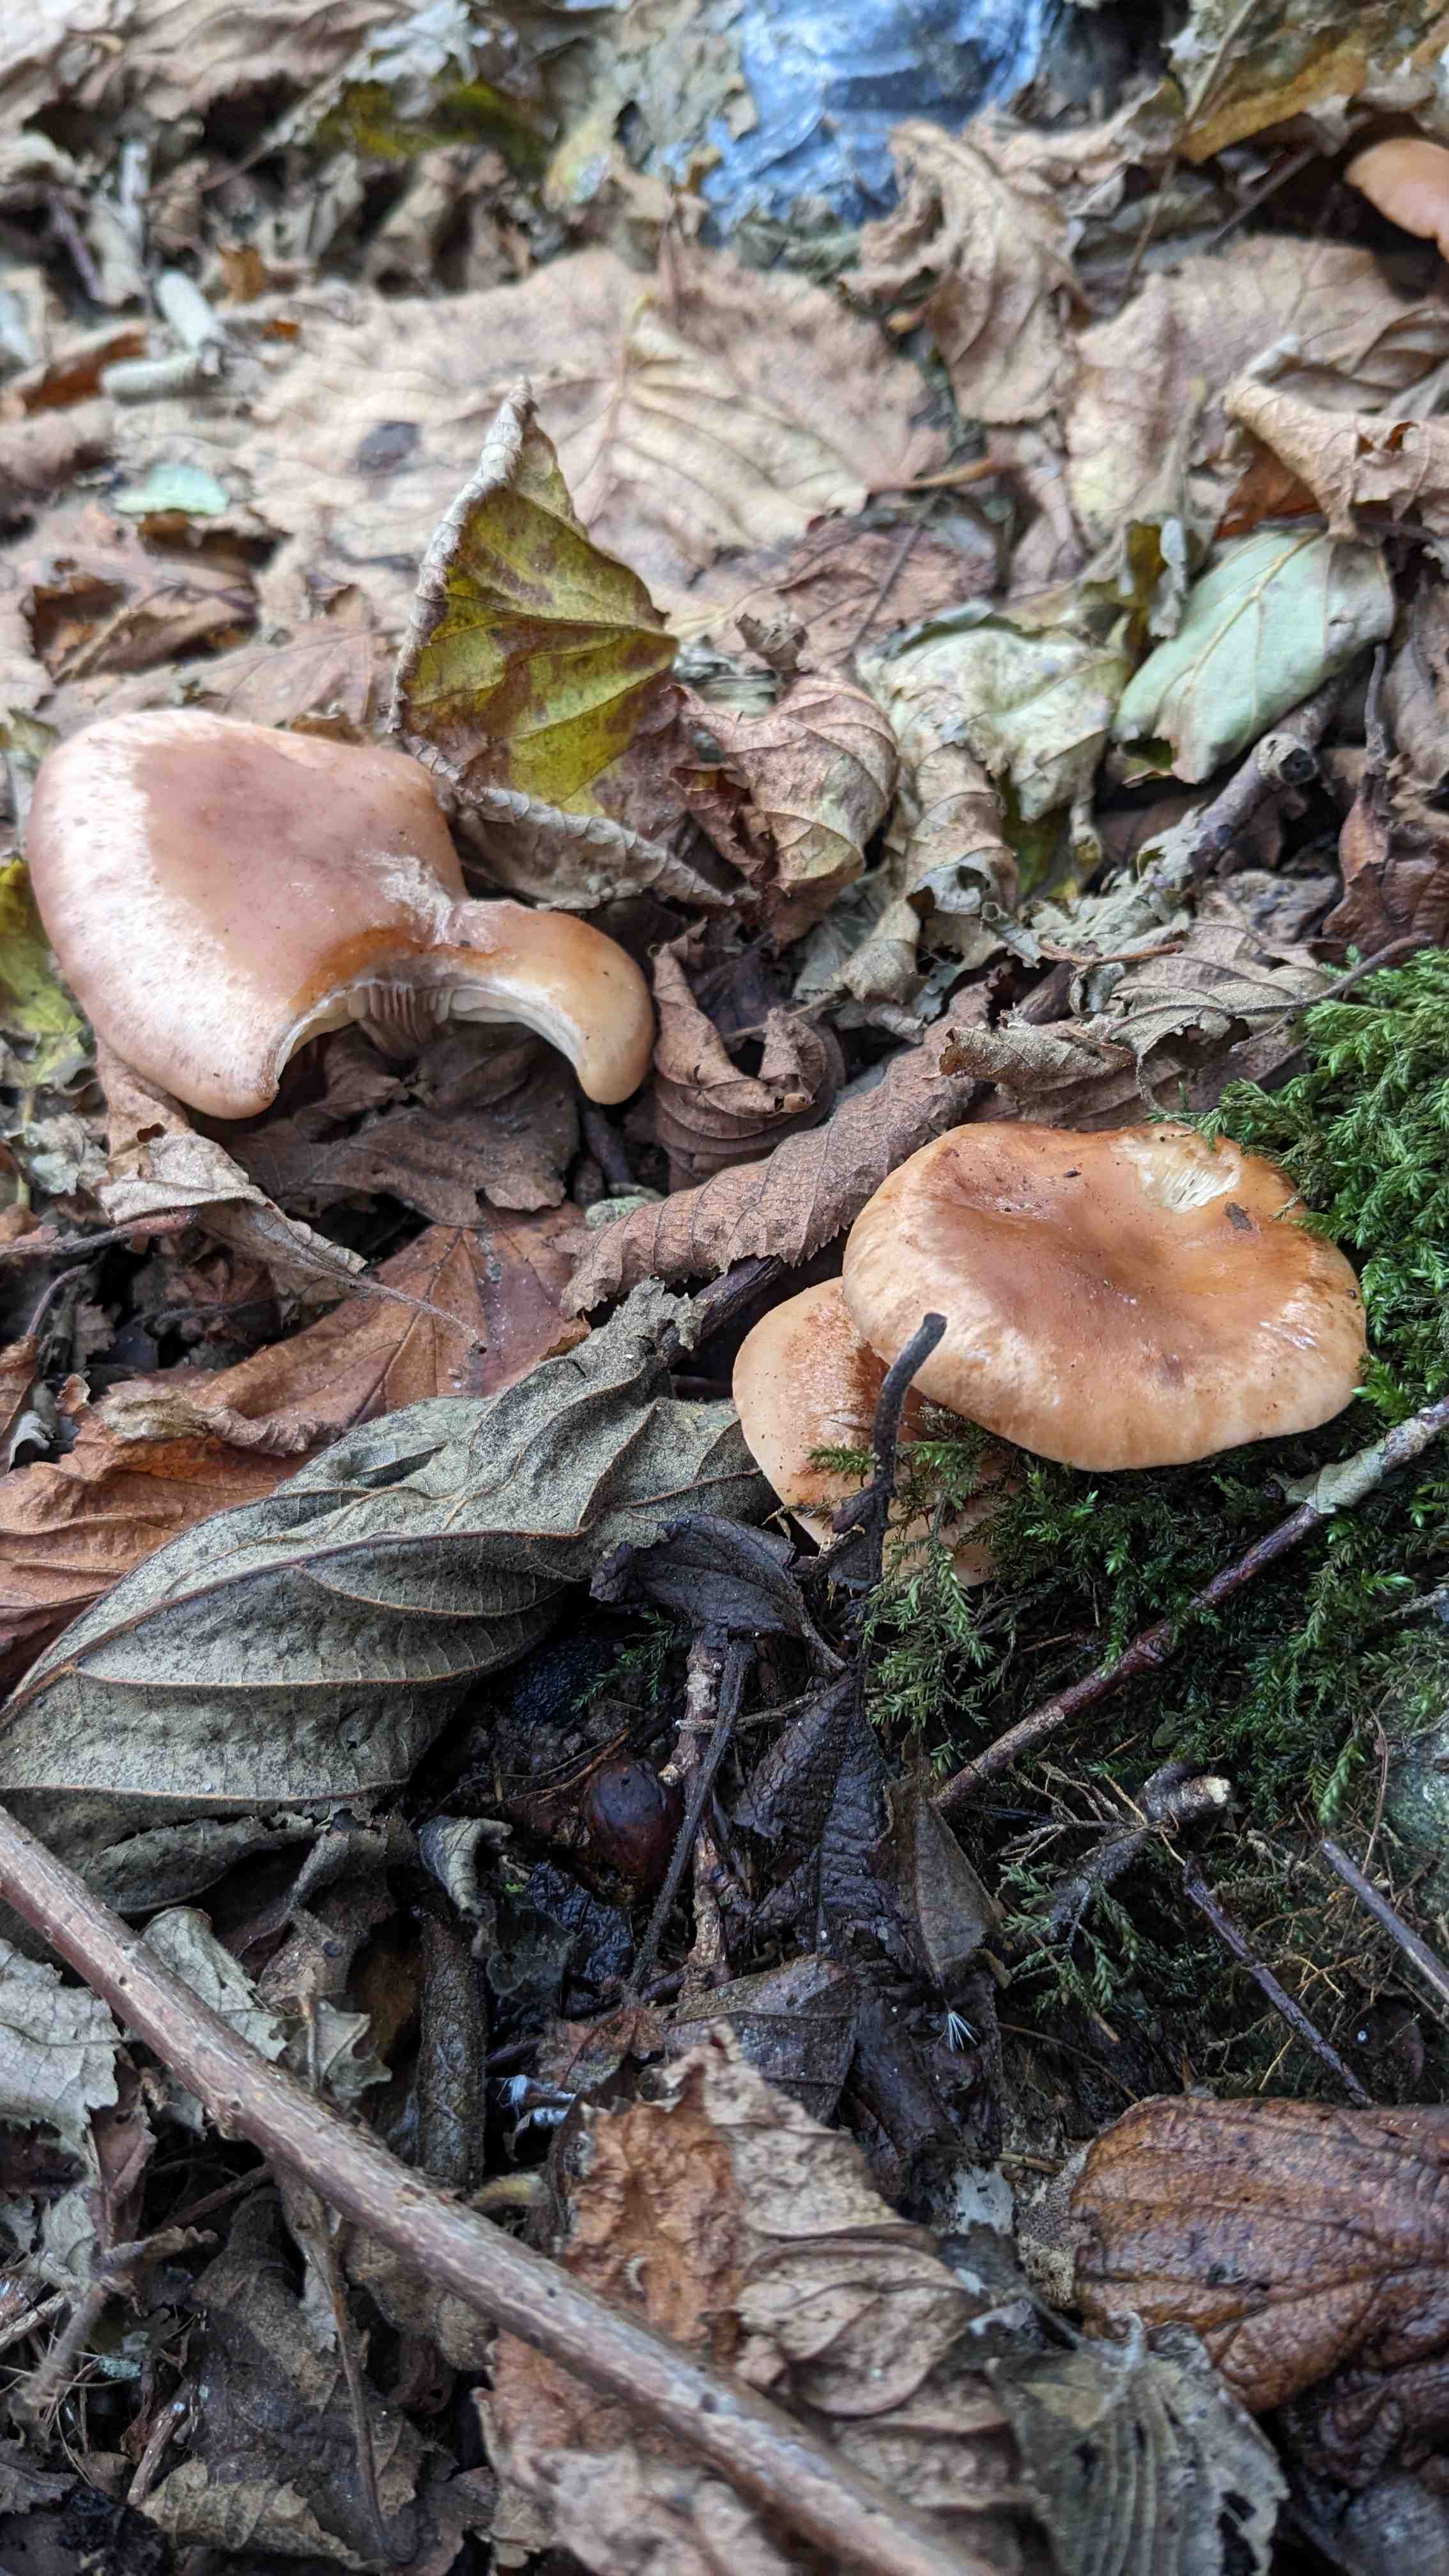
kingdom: Fungi
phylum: Basidiomycota
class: Agaricomycetes
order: Agaricales
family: Tricholomataceae
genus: Paralepista
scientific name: Paralepista flaccida
